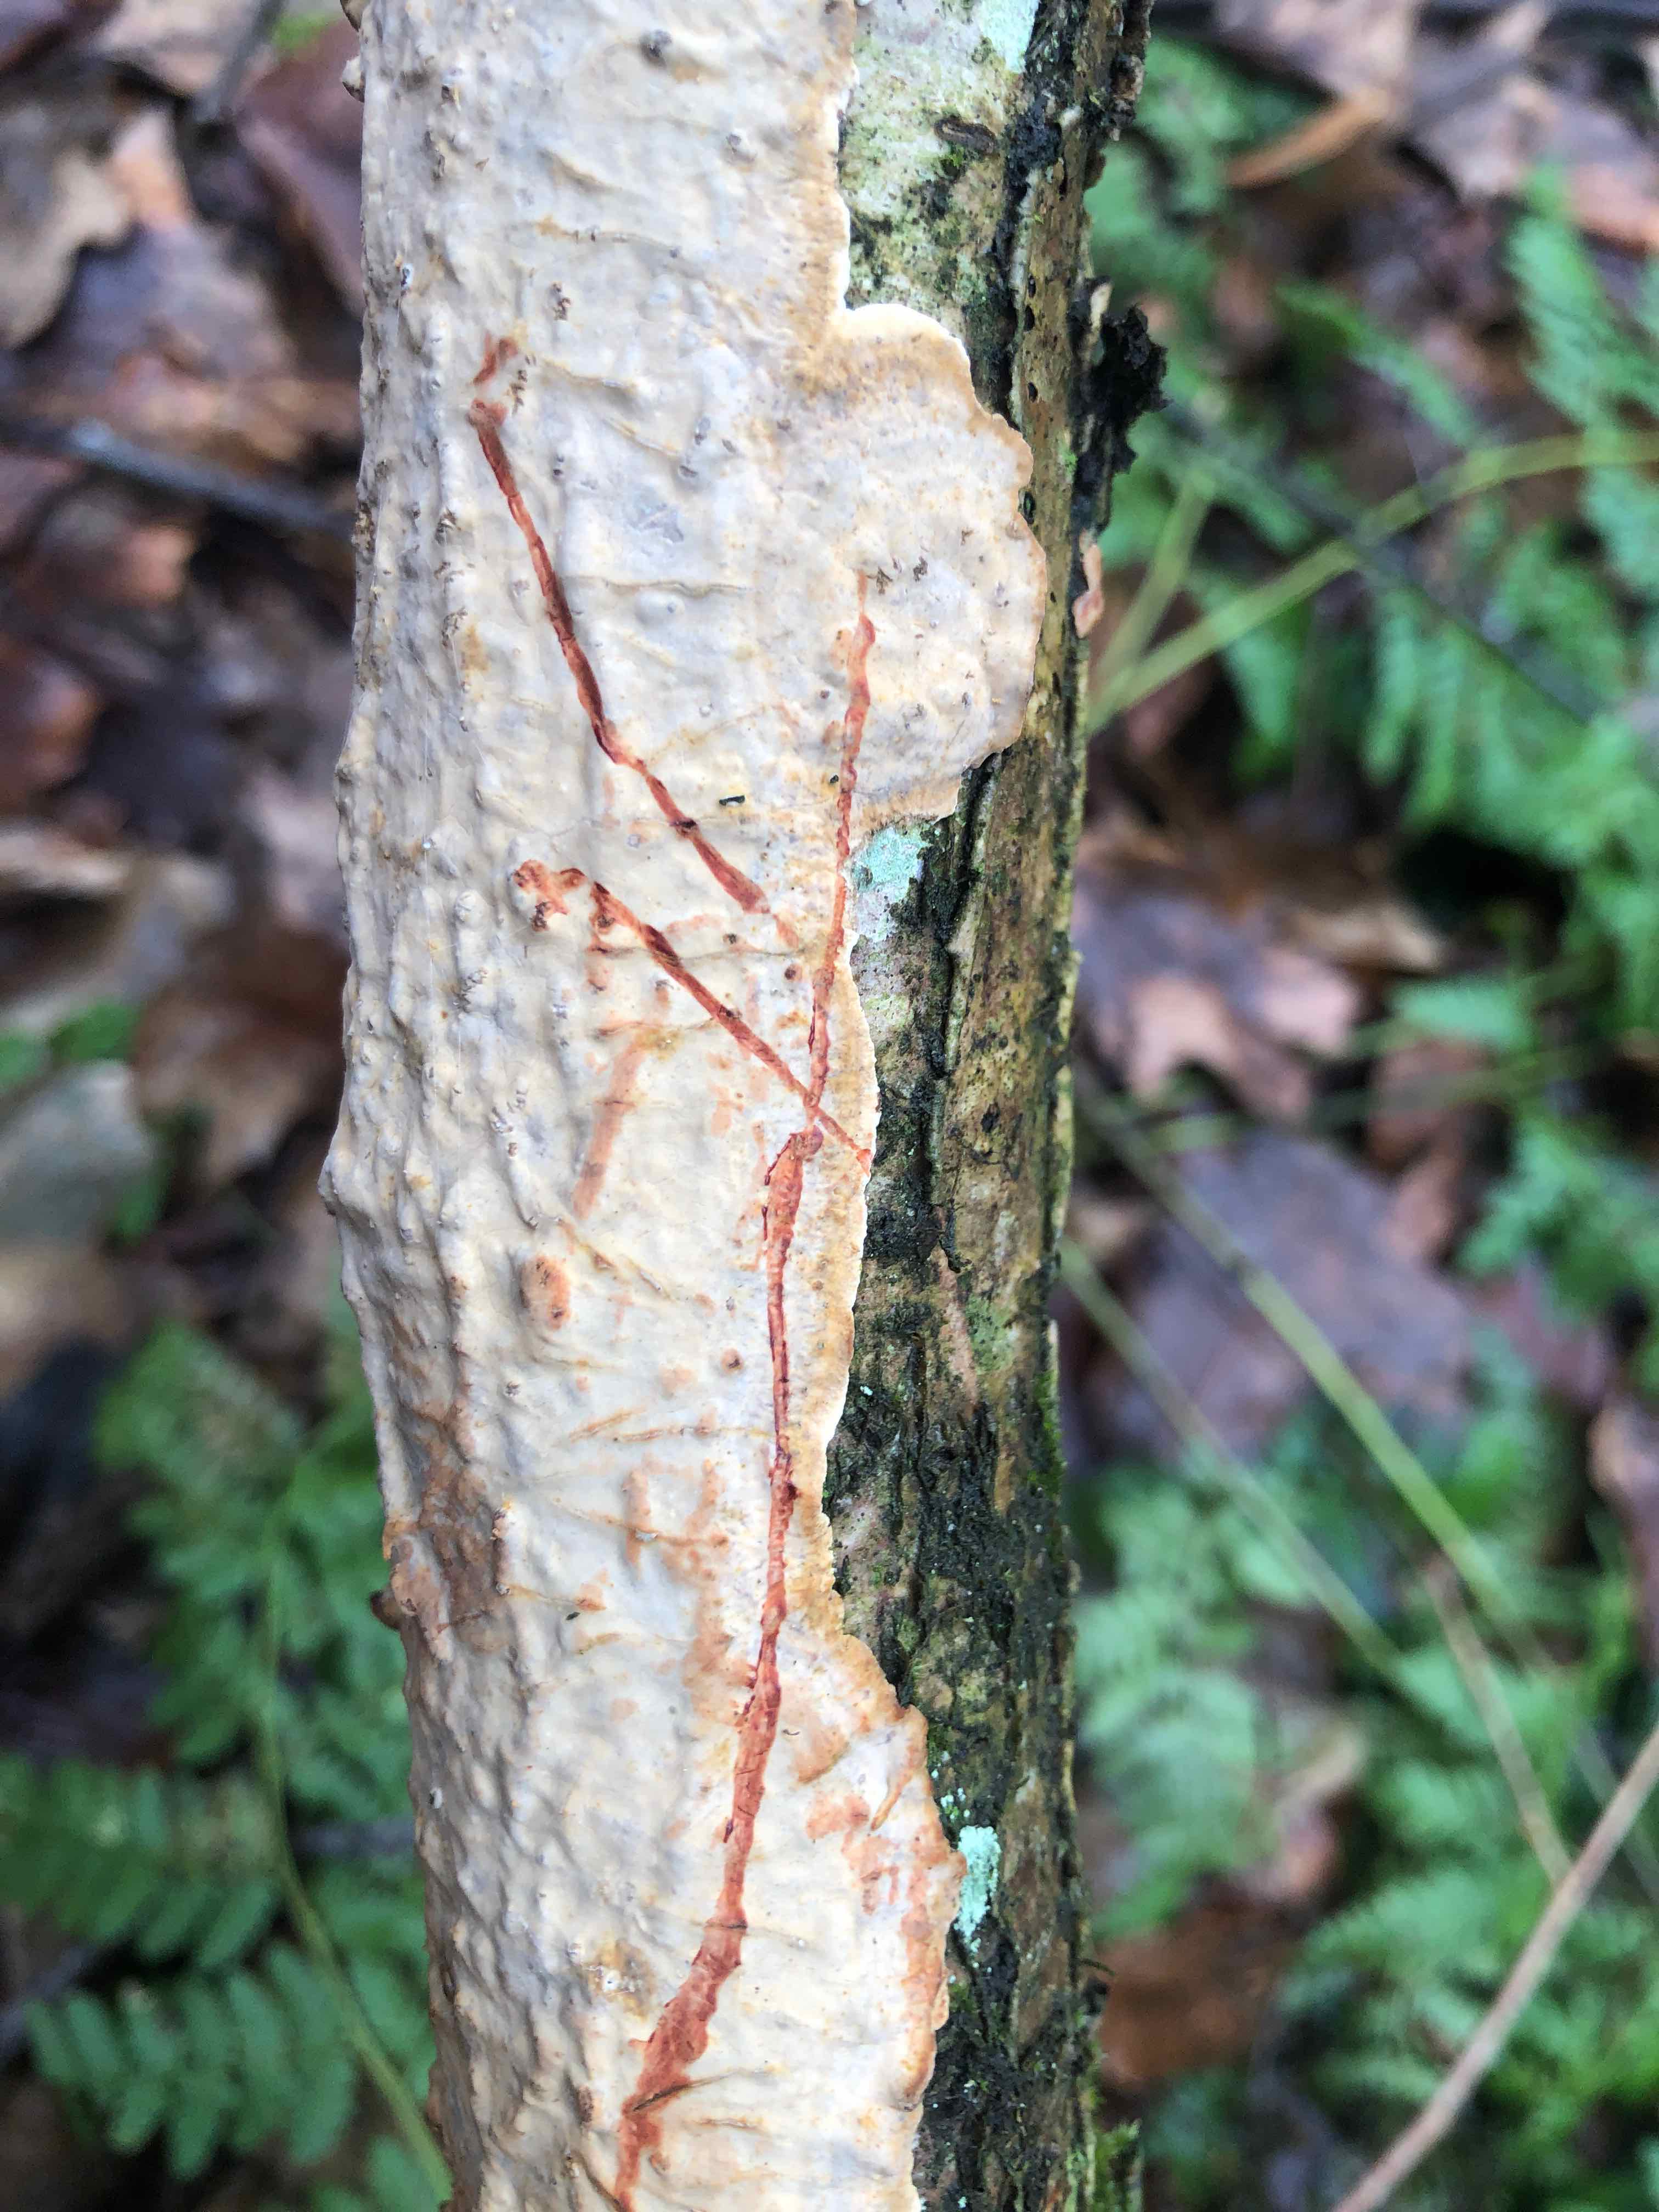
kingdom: Fungi
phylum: Basidiomycota
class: Agaricomycetes
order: Russulales
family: Stereaceae
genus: Stereum
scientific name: Stereum rugosum
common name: rynket lædersvamp
